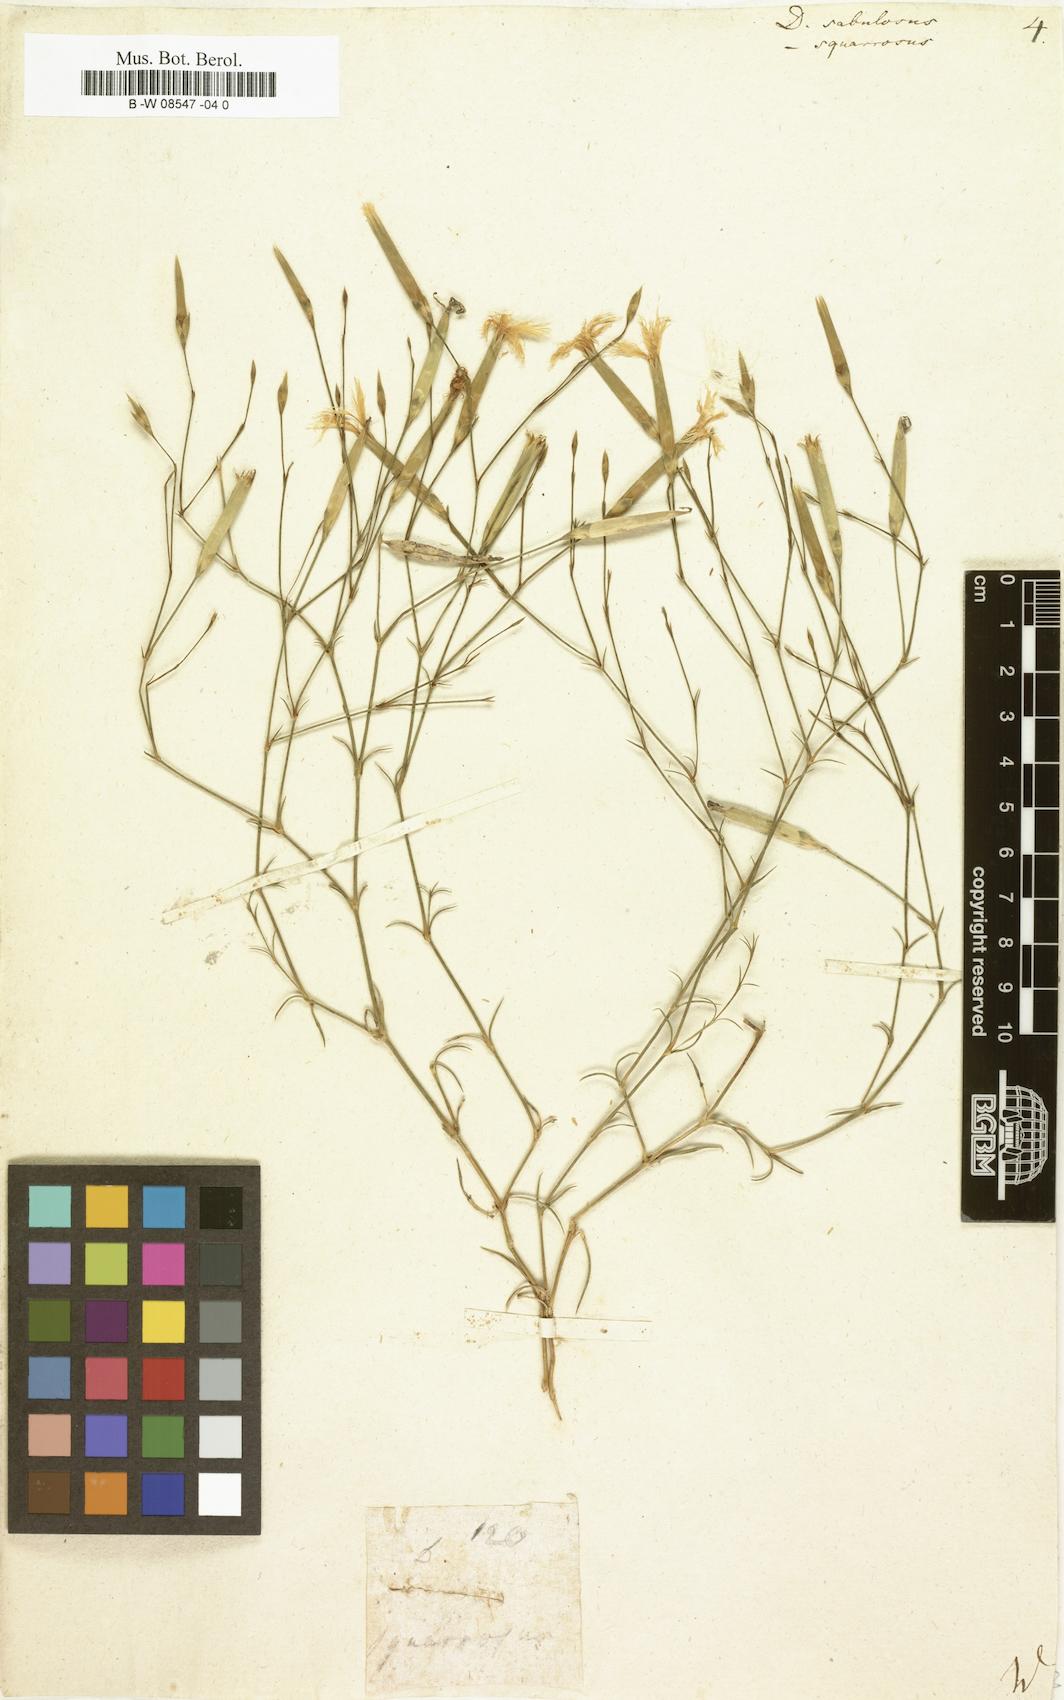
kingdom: Plantae
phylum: Tracheophyta
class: Magnoliopsida
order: Caryophyllales
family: Caryophyllaceae
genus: Dianthus
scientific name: Dianthus squarrosus
